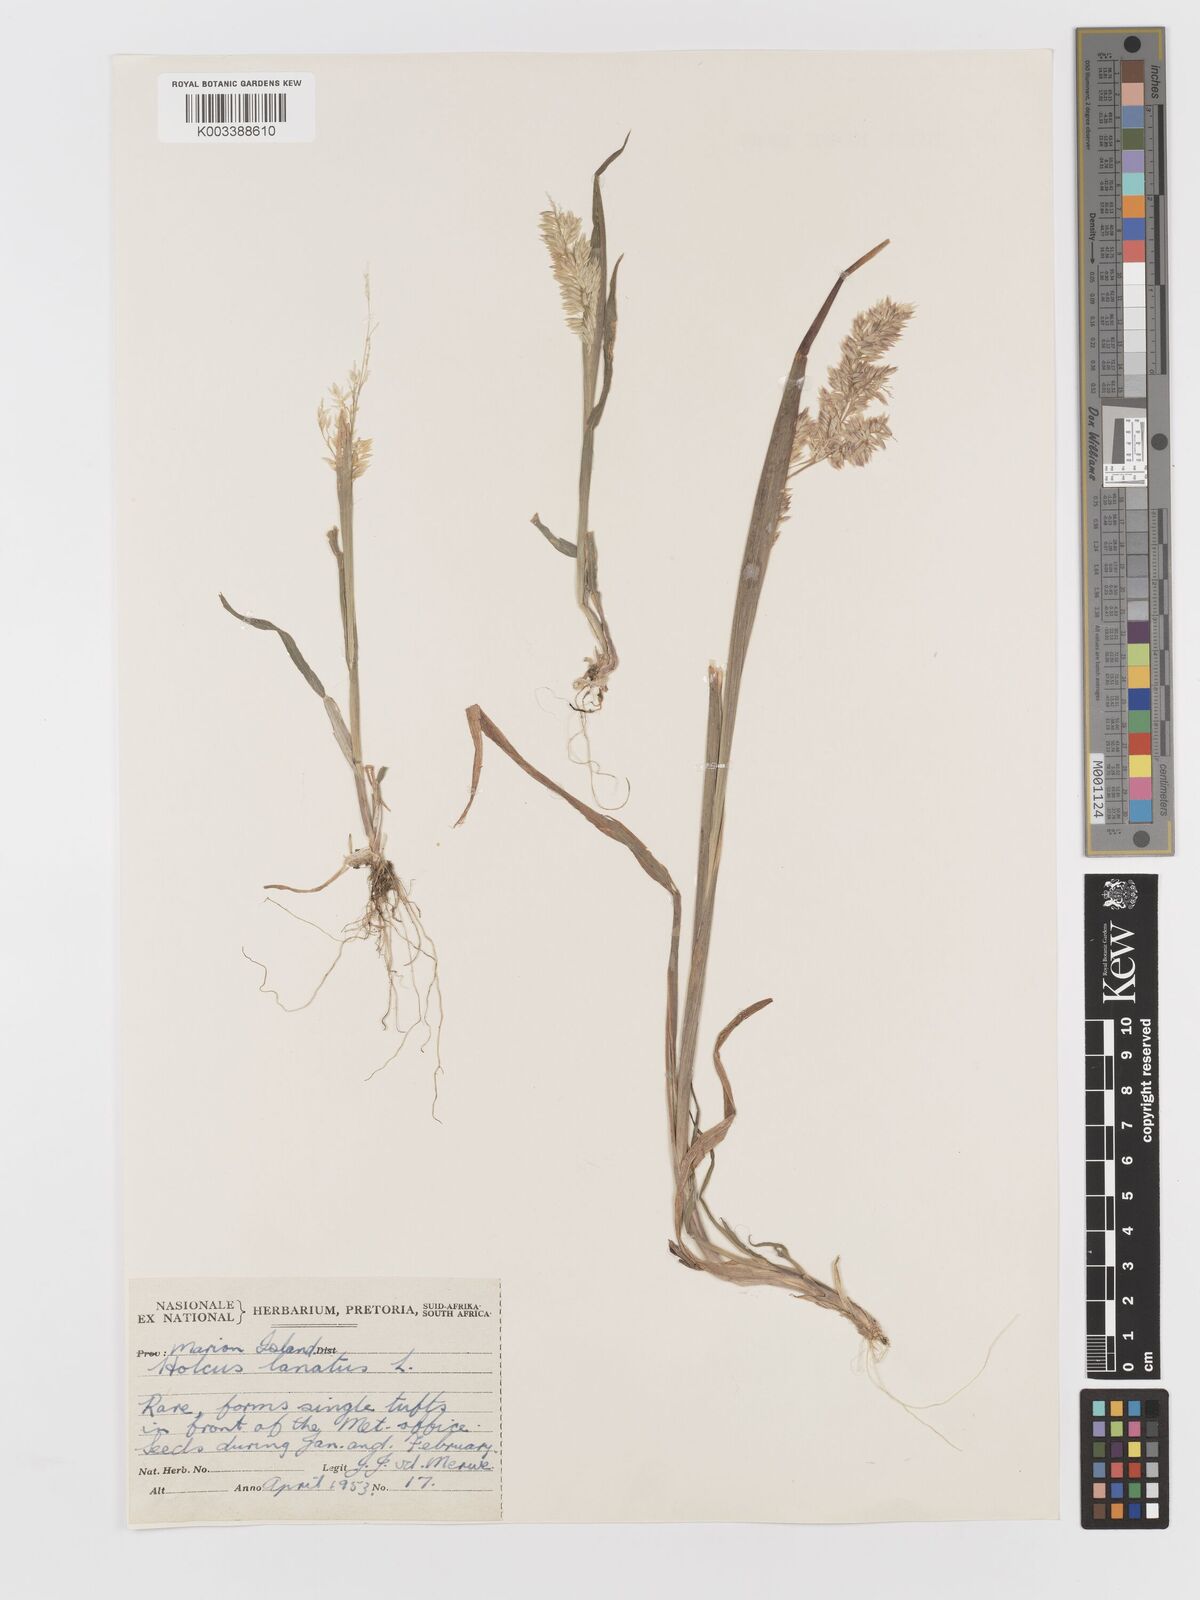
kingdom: Plantae
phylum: Tracheophyta
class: Liliopsida
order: Poales
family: Poaceae
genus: Holcus
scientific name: Holcus lanatus
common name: Yorkshire-fog
